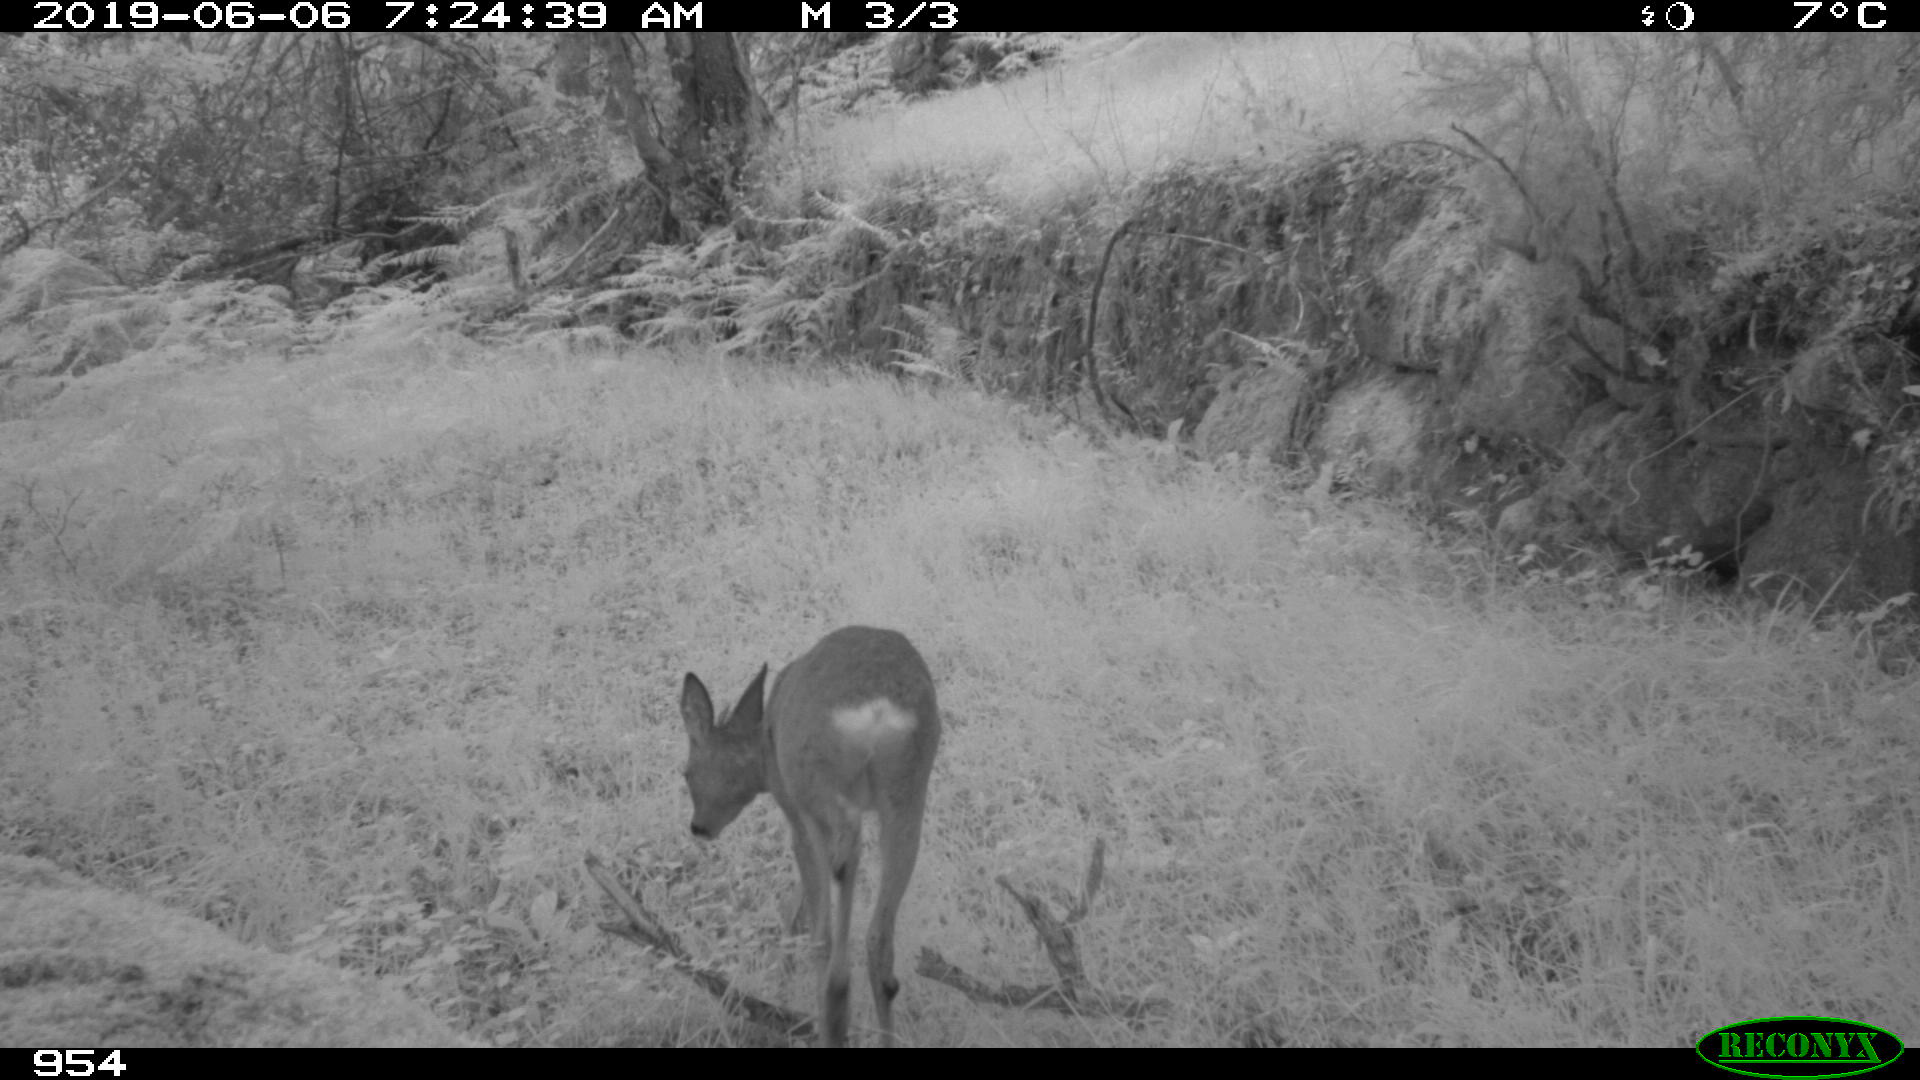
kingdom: Animalia
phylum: Chordata
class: Mammalia
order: Artiodactyla
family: Cervidae
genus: Capreolus
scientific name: Capreolus capreolus
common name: Western roe deer
